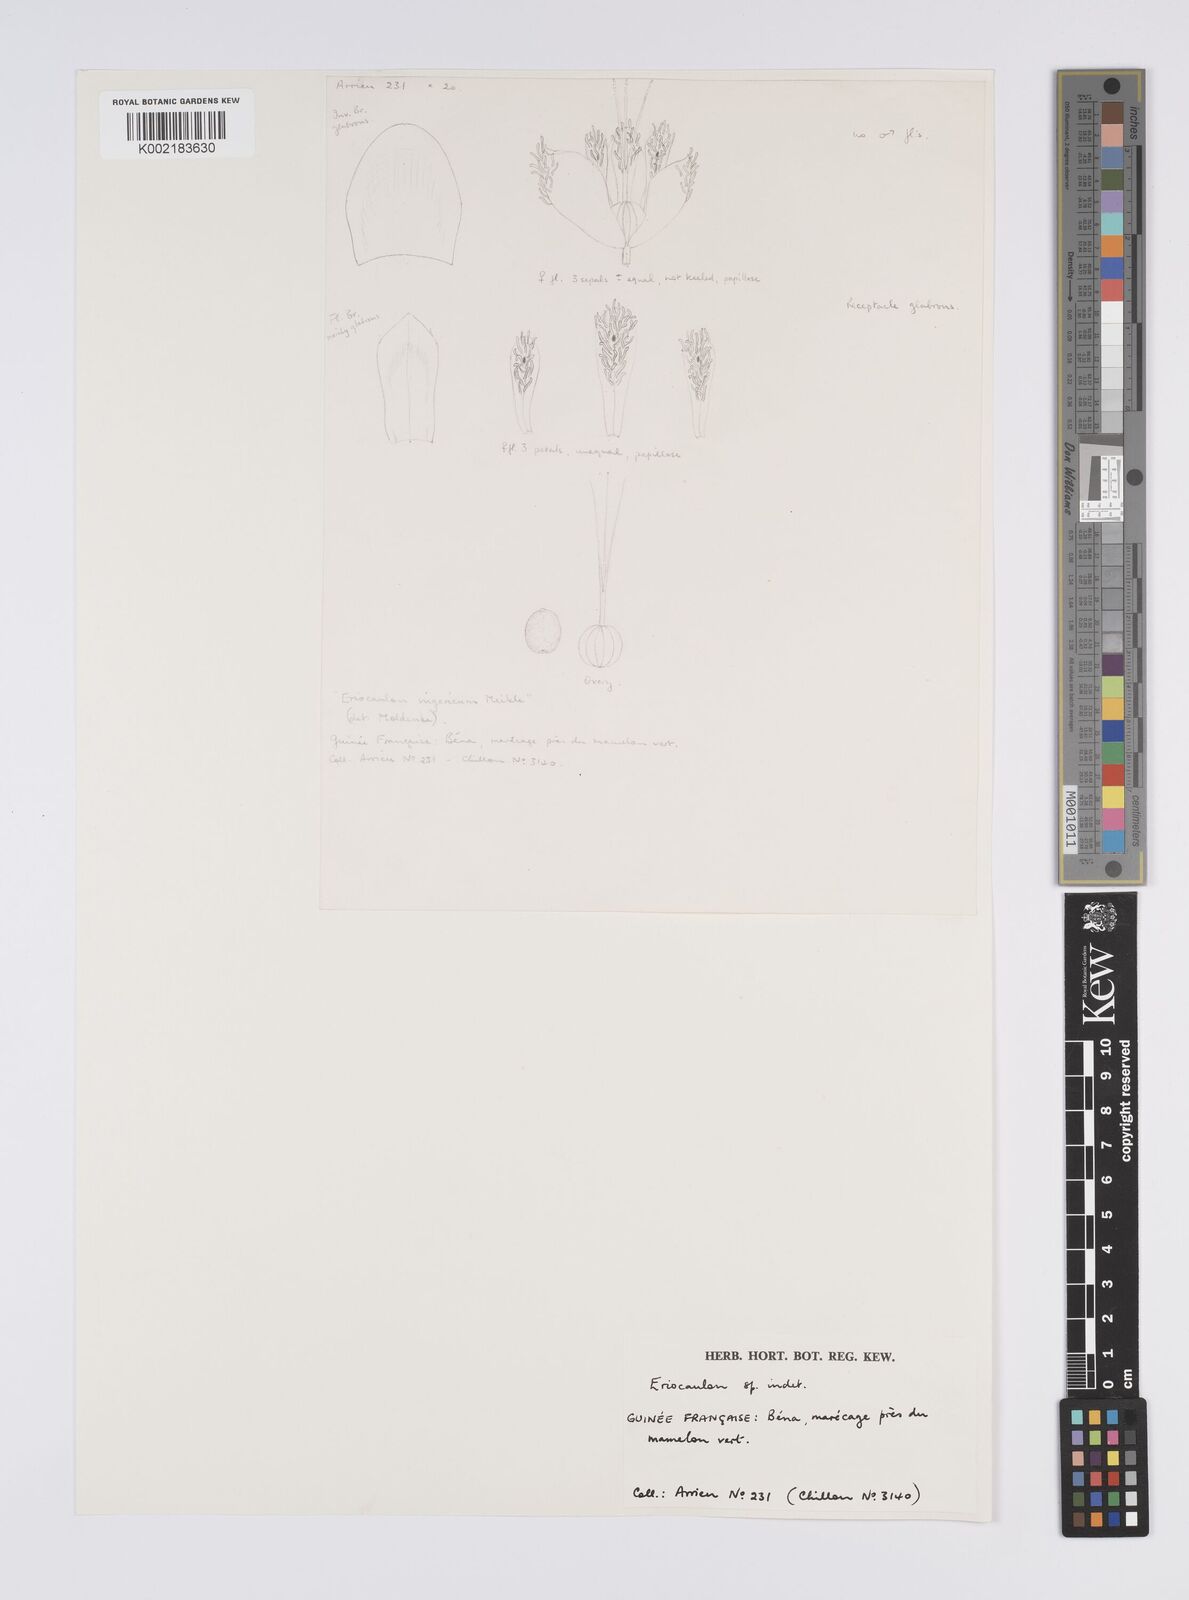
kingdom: Plantae
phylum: Tracheophyta
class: Liliopsida
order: Poales
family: Eriocaulaceae
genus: Eriocaulon
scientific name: Eriocaulon
